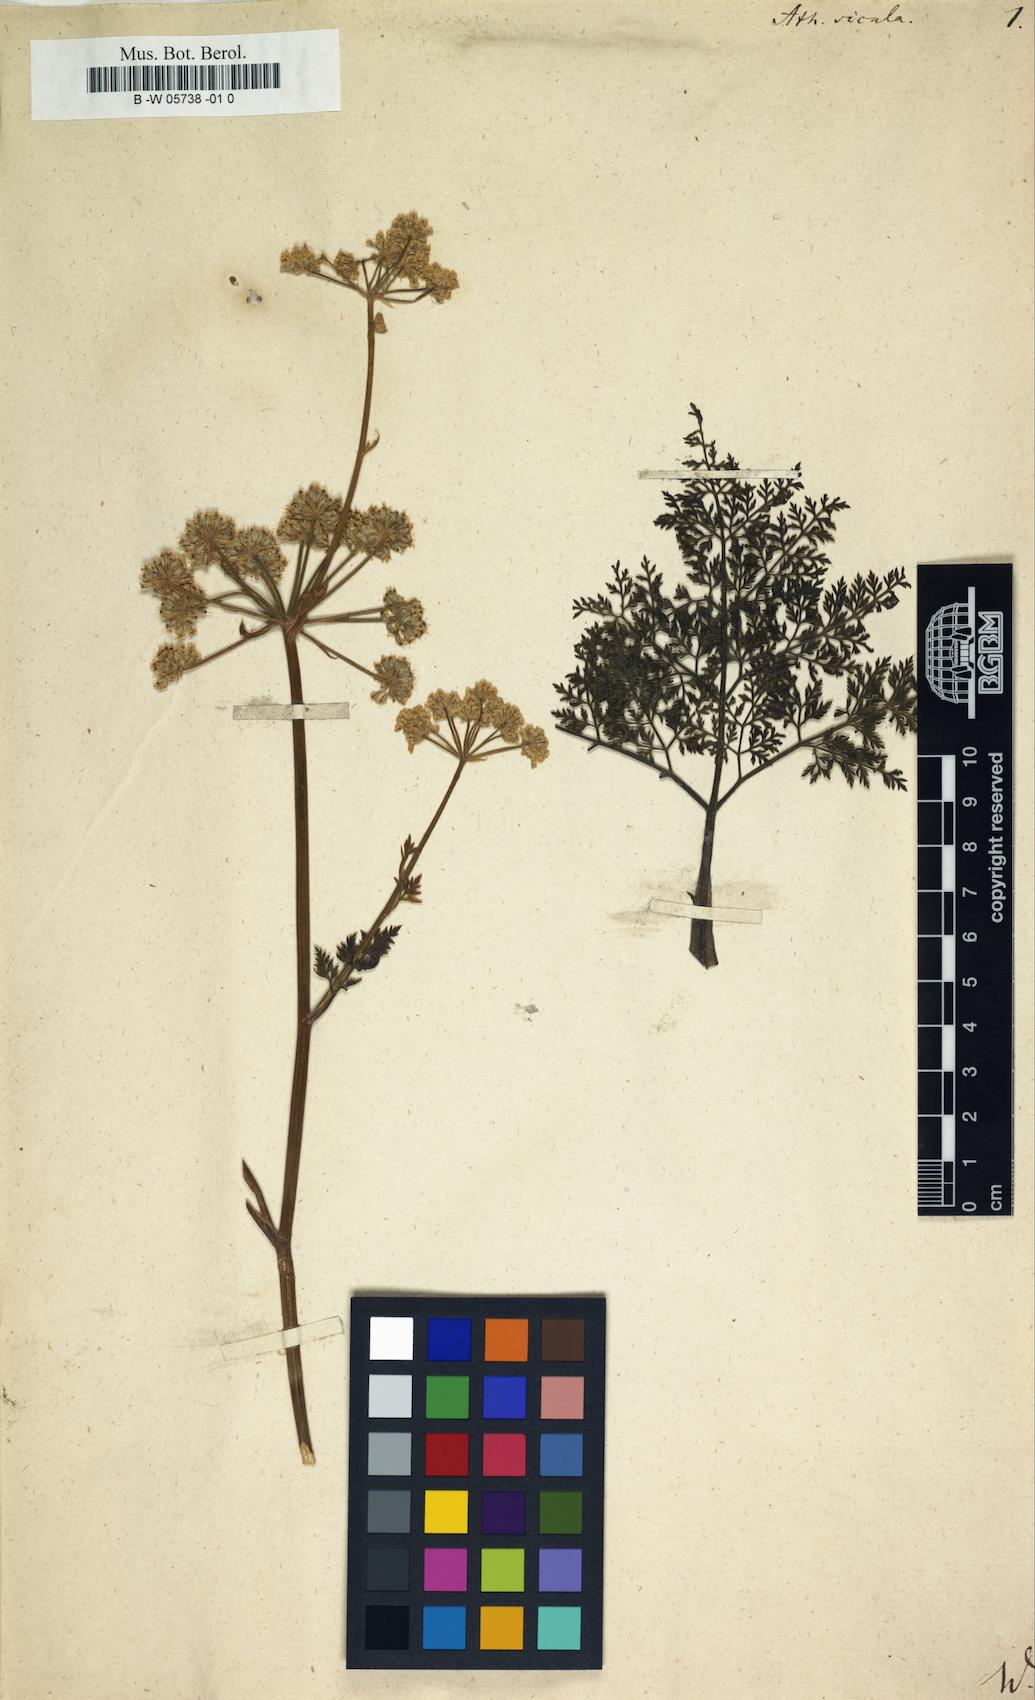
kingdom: Plantae
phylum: Tracheophyta
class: Magnoliopsida
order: Apiales
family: Apiaceae
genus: Athamanta
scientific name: Athamanta sicula
